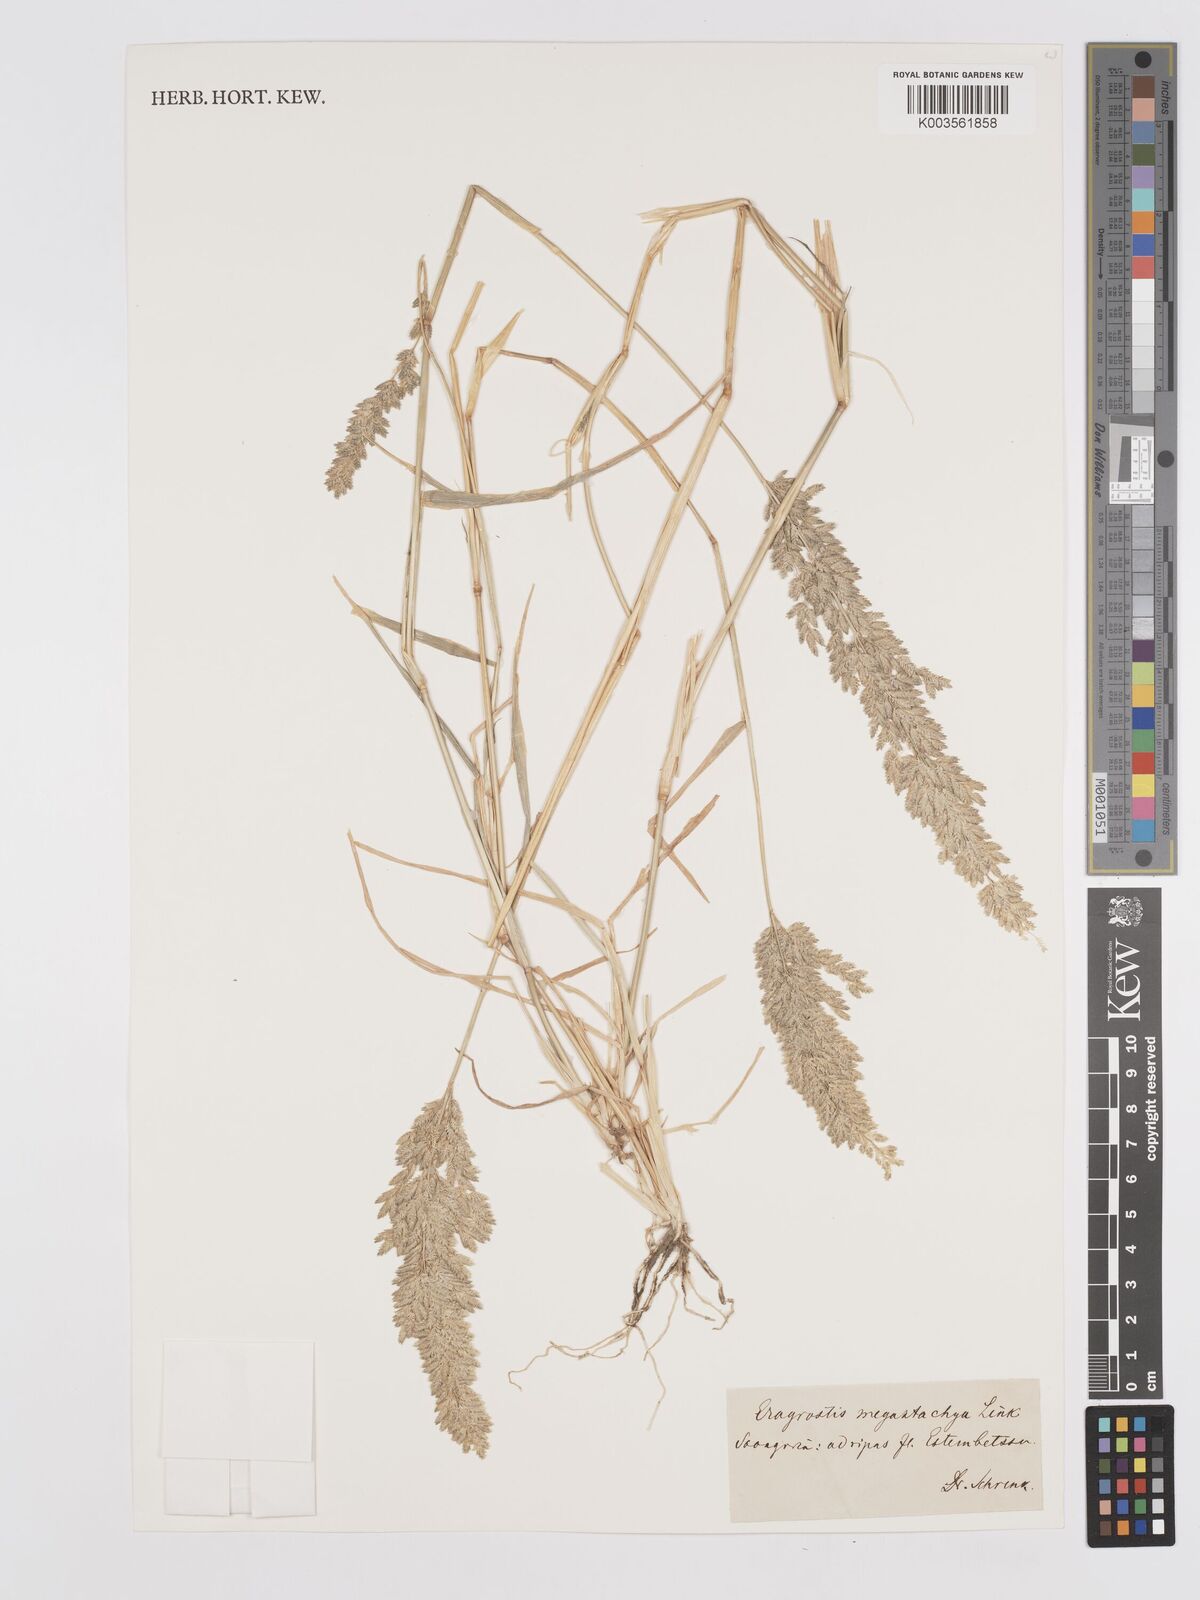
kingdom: Plantae
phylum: Tracheophyta
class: Liliopsida
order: Poales
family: Poaceae
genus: Eragrostis
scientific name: Eragrostis cilianensis
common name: Stinkgrass
